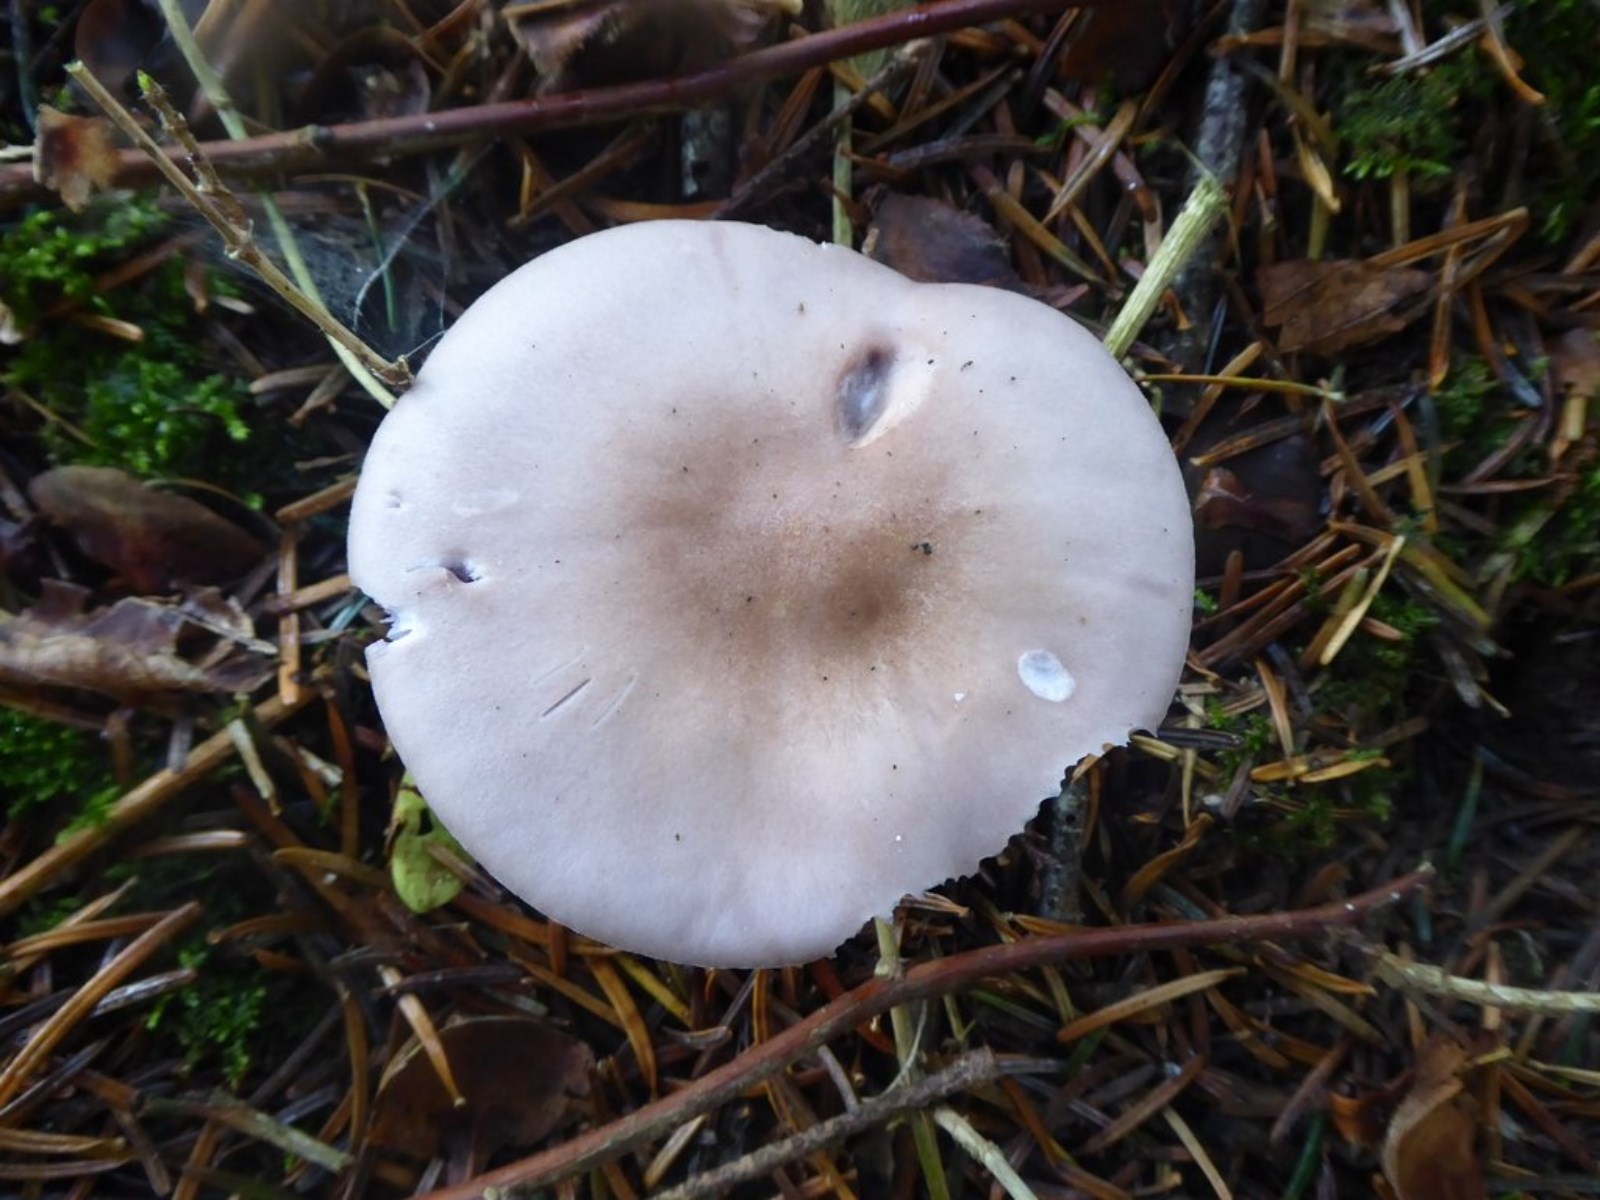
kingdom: Fungi
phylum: Basidiomycota
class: Agaricomycetes
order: Agaricales
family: Tricholomataceae
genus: Lepista
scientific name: Lepista nuda
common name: violet hekseringshat
